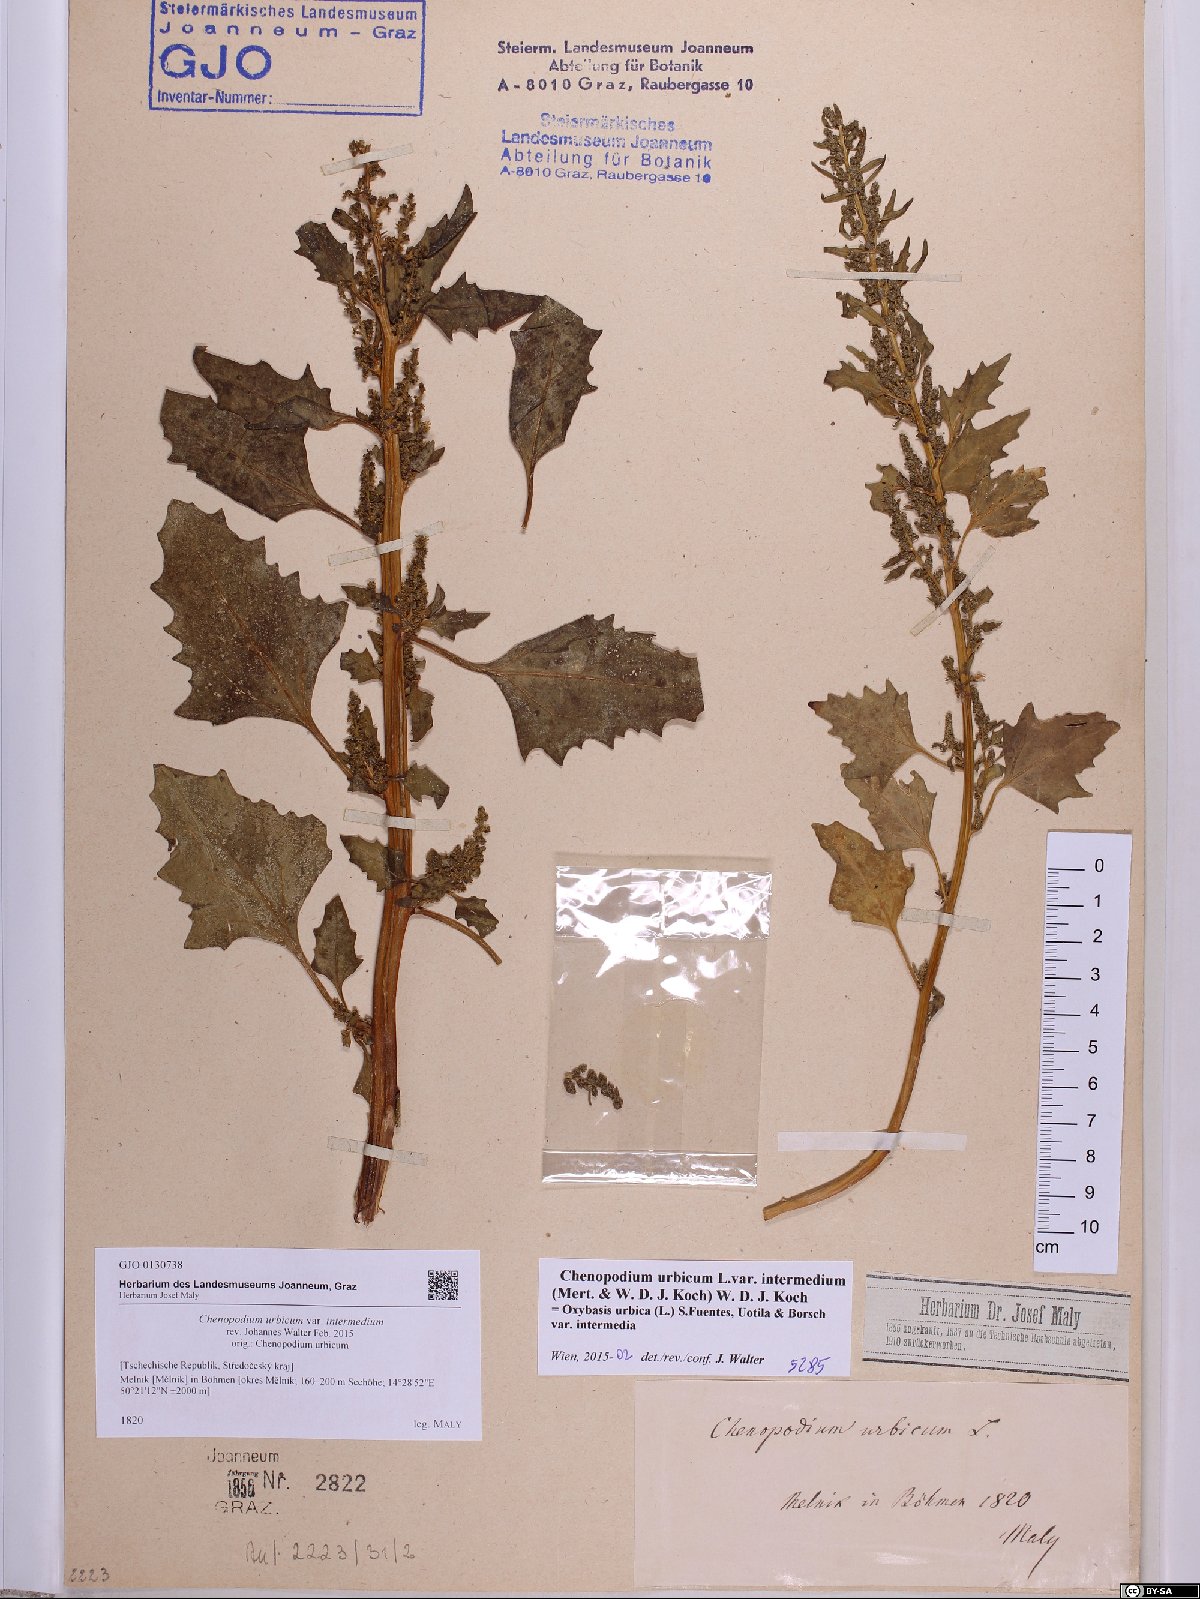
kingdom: Plantae
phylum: Tracheophyta
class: Magnoliopsida
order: Caryophyllales
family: Amaranthaceae
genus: Oxybasis
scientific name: Oxybasis rhombifolia
